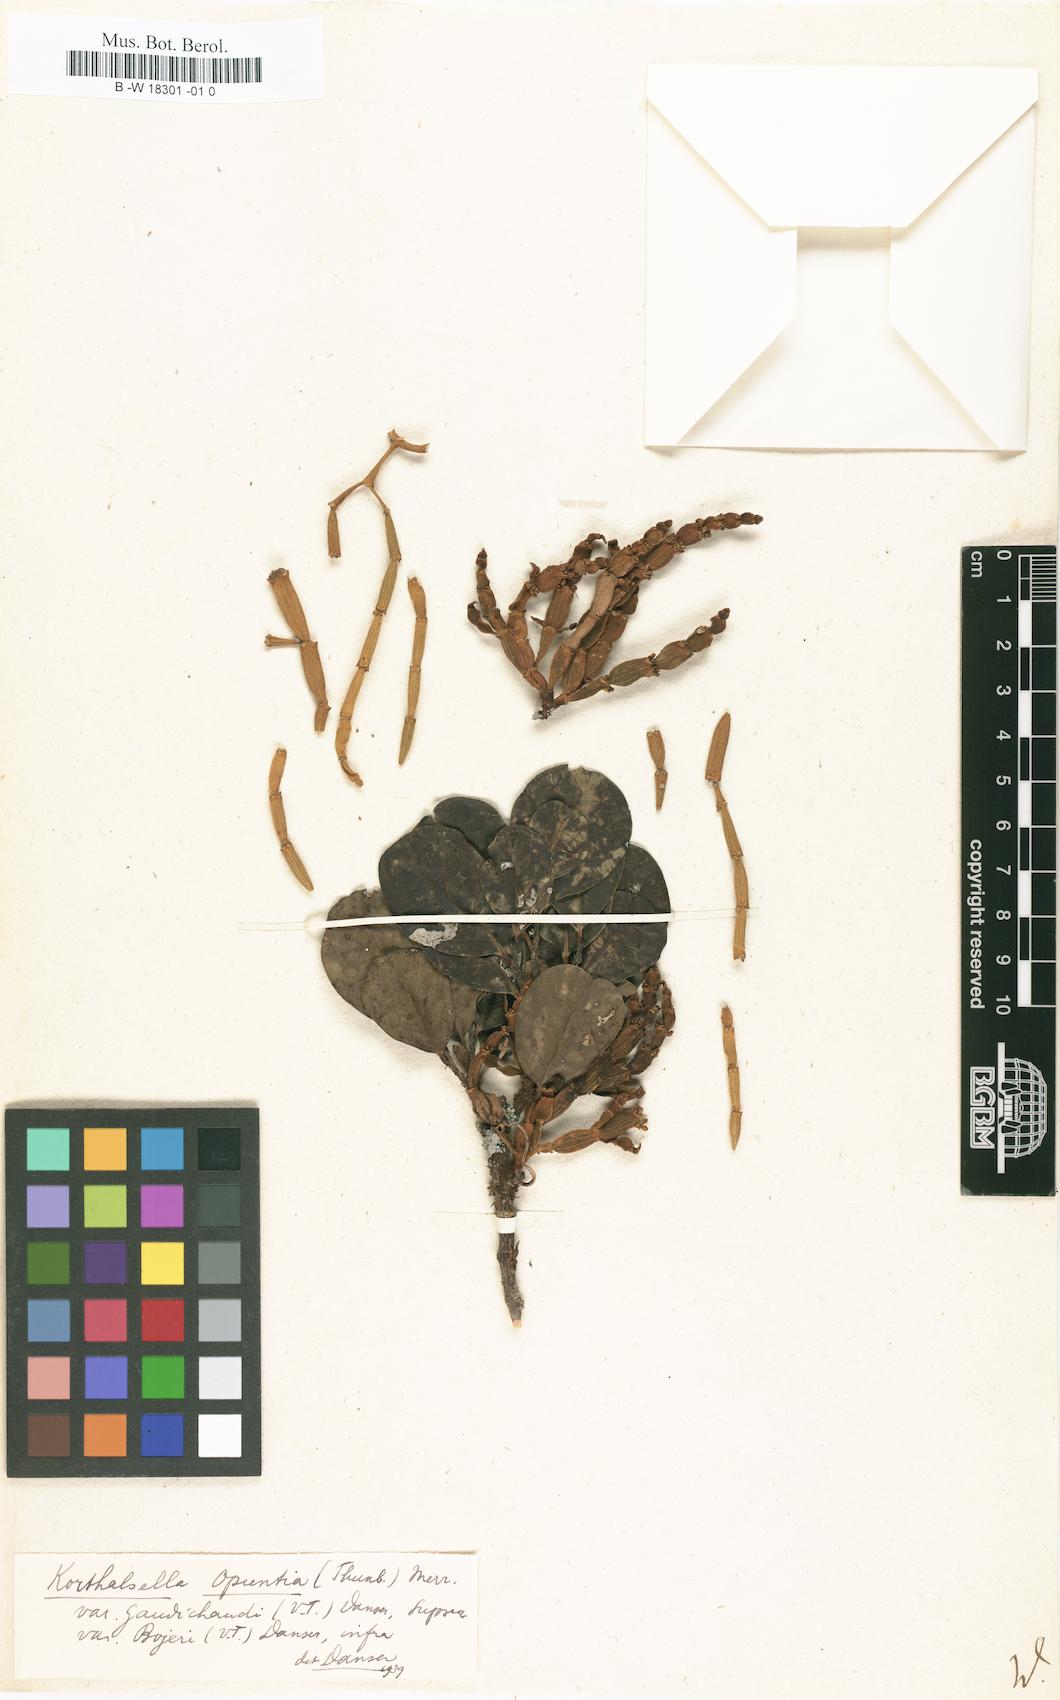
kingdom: Plantae
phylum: Tracheophyta
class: Magnoliopsida
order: Santalales
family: Viscaceae
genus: Viscum
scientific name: Viscum
